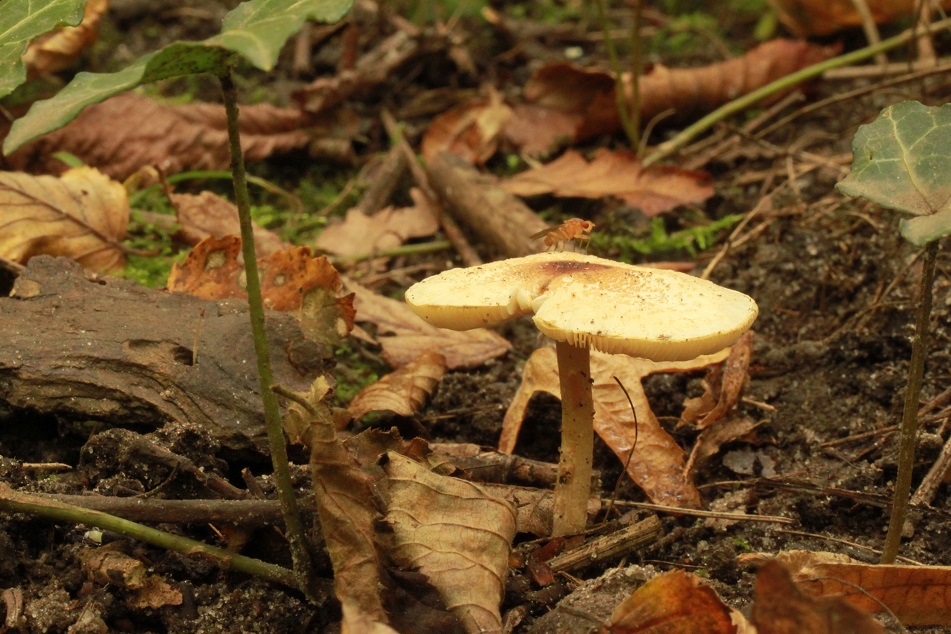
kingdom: Fungi
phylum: Basidiomycota
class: Agaricomycetes
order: Agaricales
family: Agaricaceae
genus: Lepiota
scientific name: Lepiota cristata
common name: stinkende parasolhat
